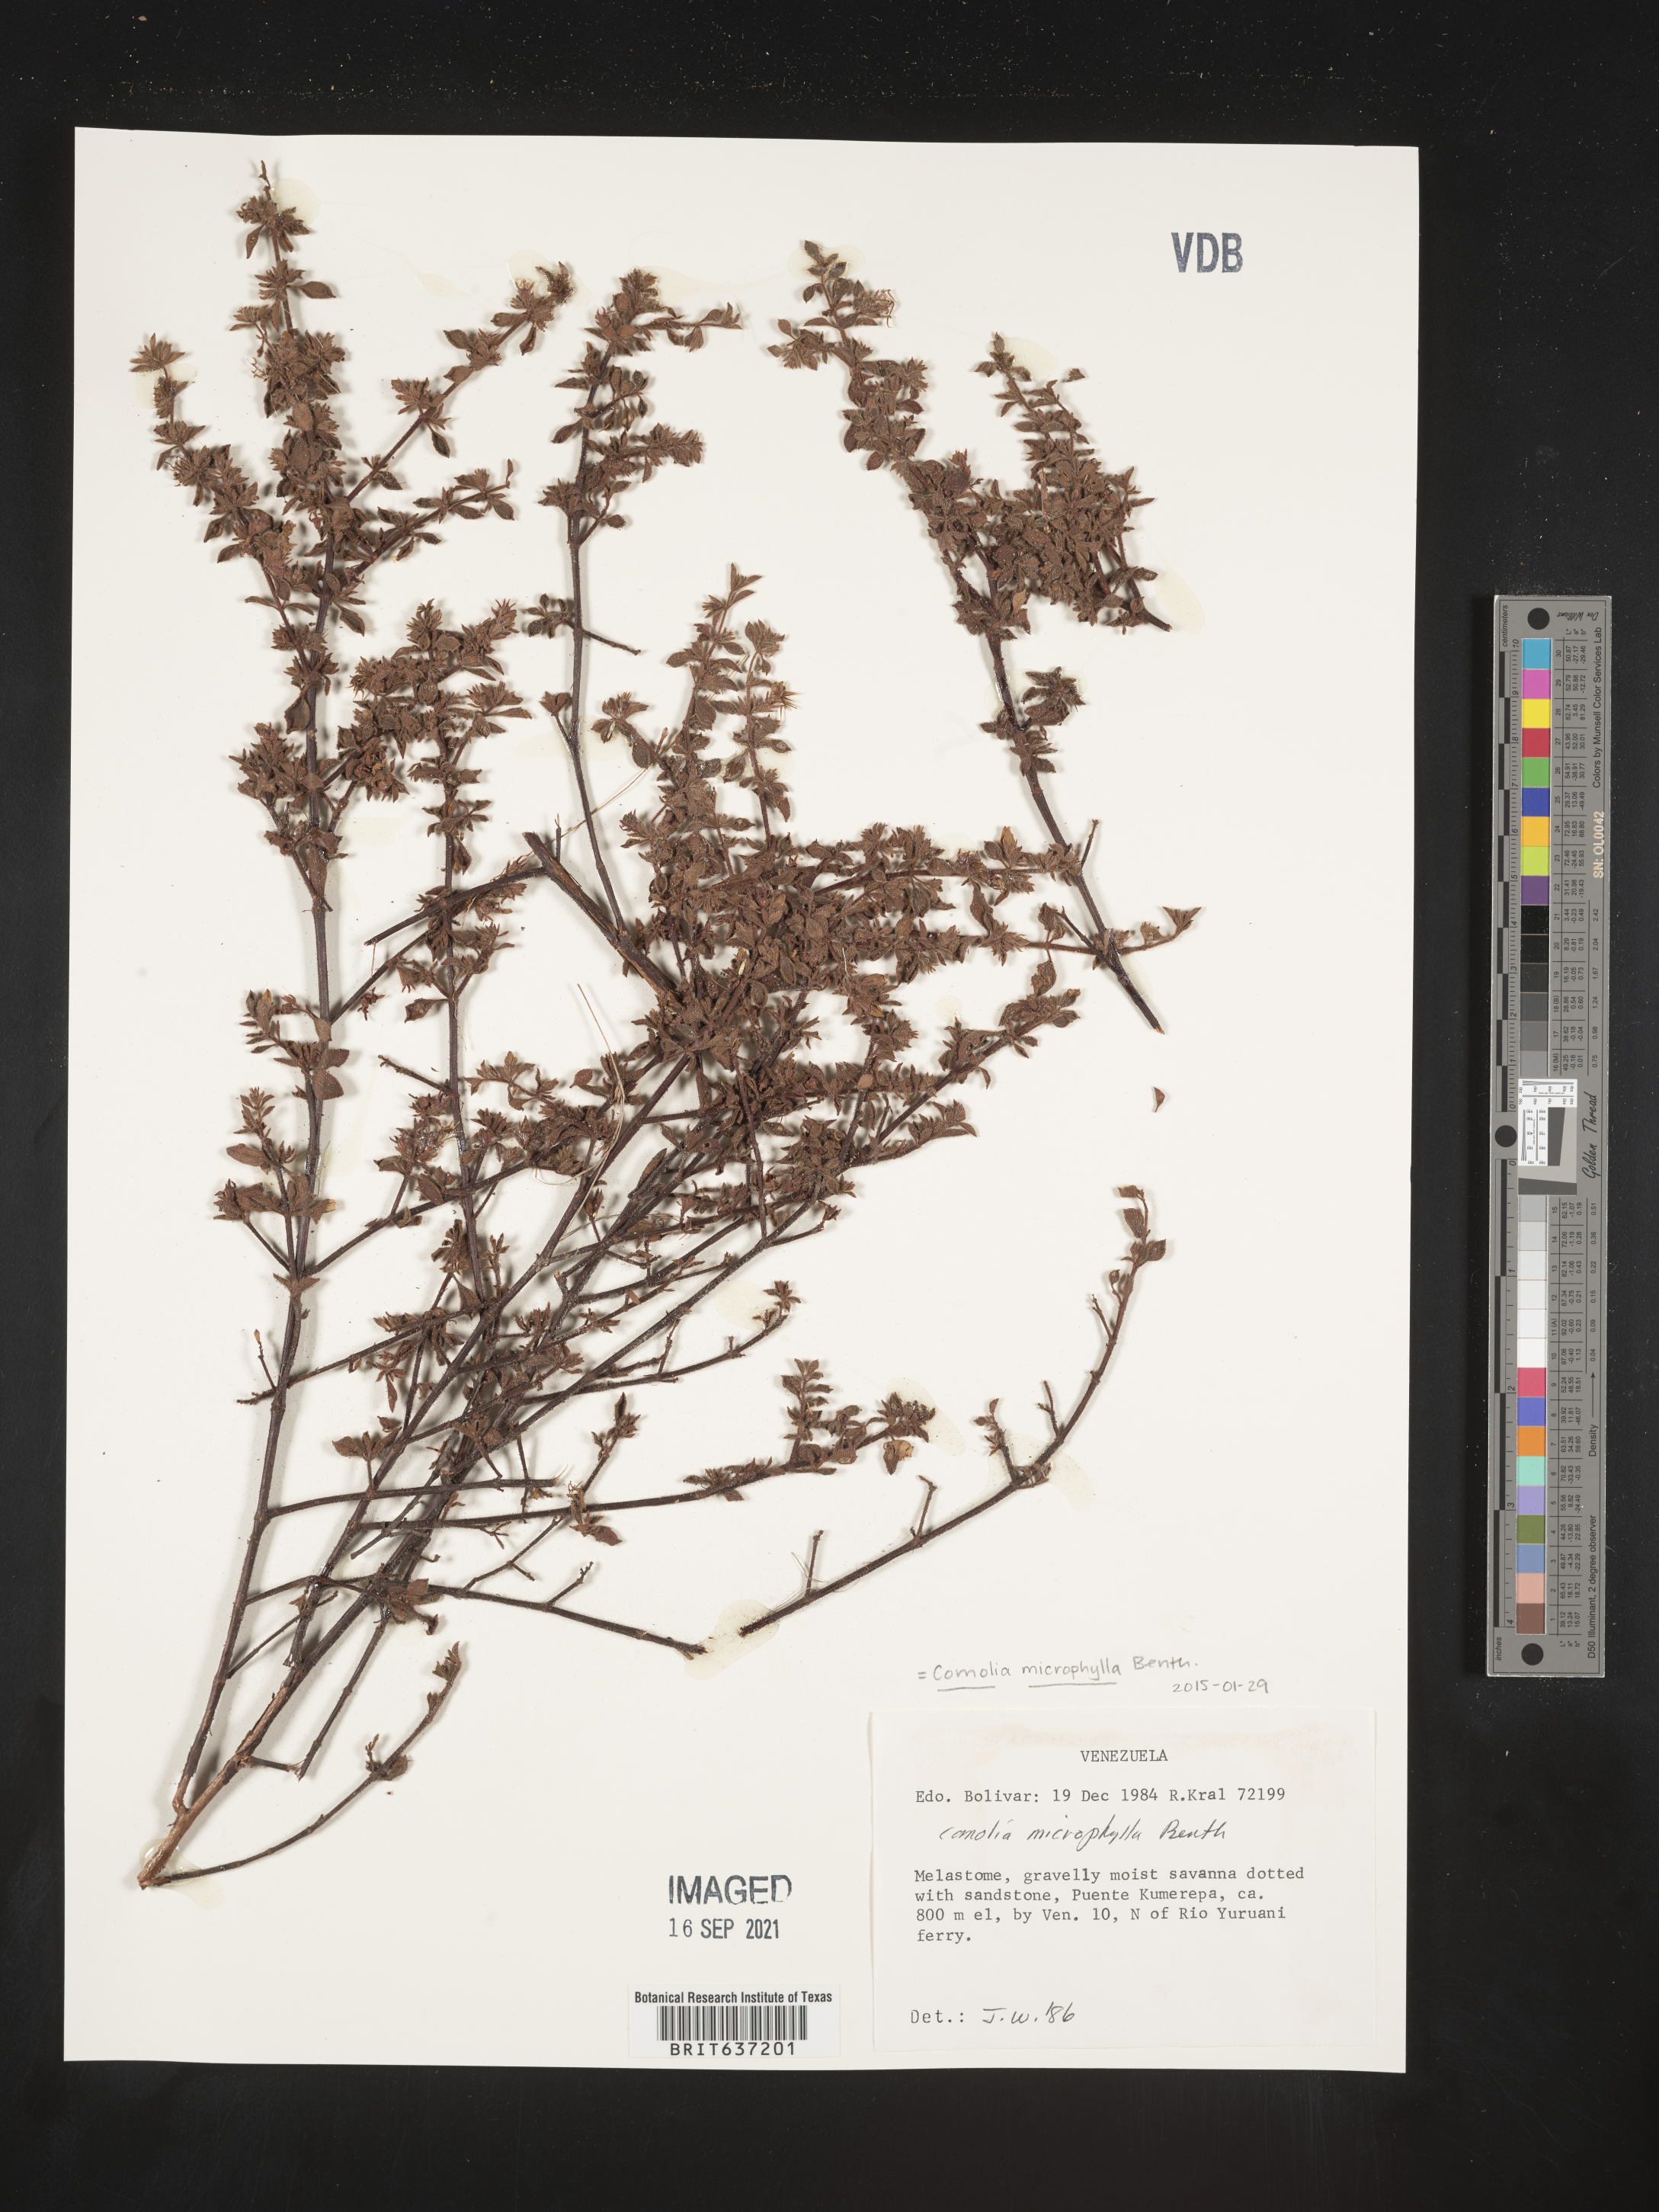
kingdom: Plantae
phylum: Tracheophyta
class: Magnoliopsida
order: Myrtales
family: Melastomataceae
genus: Comolia
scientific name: Comolia
